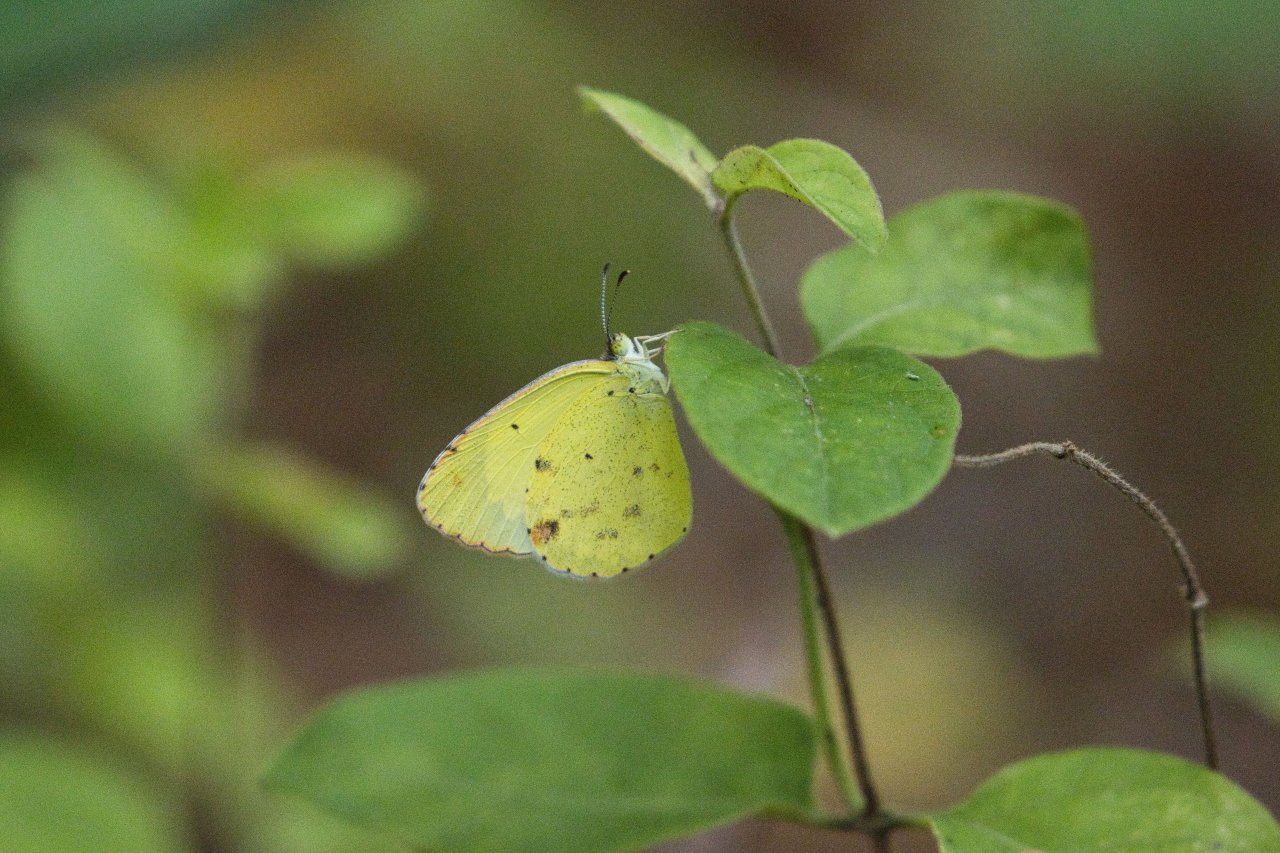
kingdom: Animalia
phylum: Arthropoda
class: Insecta
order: Lepidoptera
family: Pieridae
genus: Pyrisitia
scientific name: Pyrisitia lisa
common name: Little Yellow
